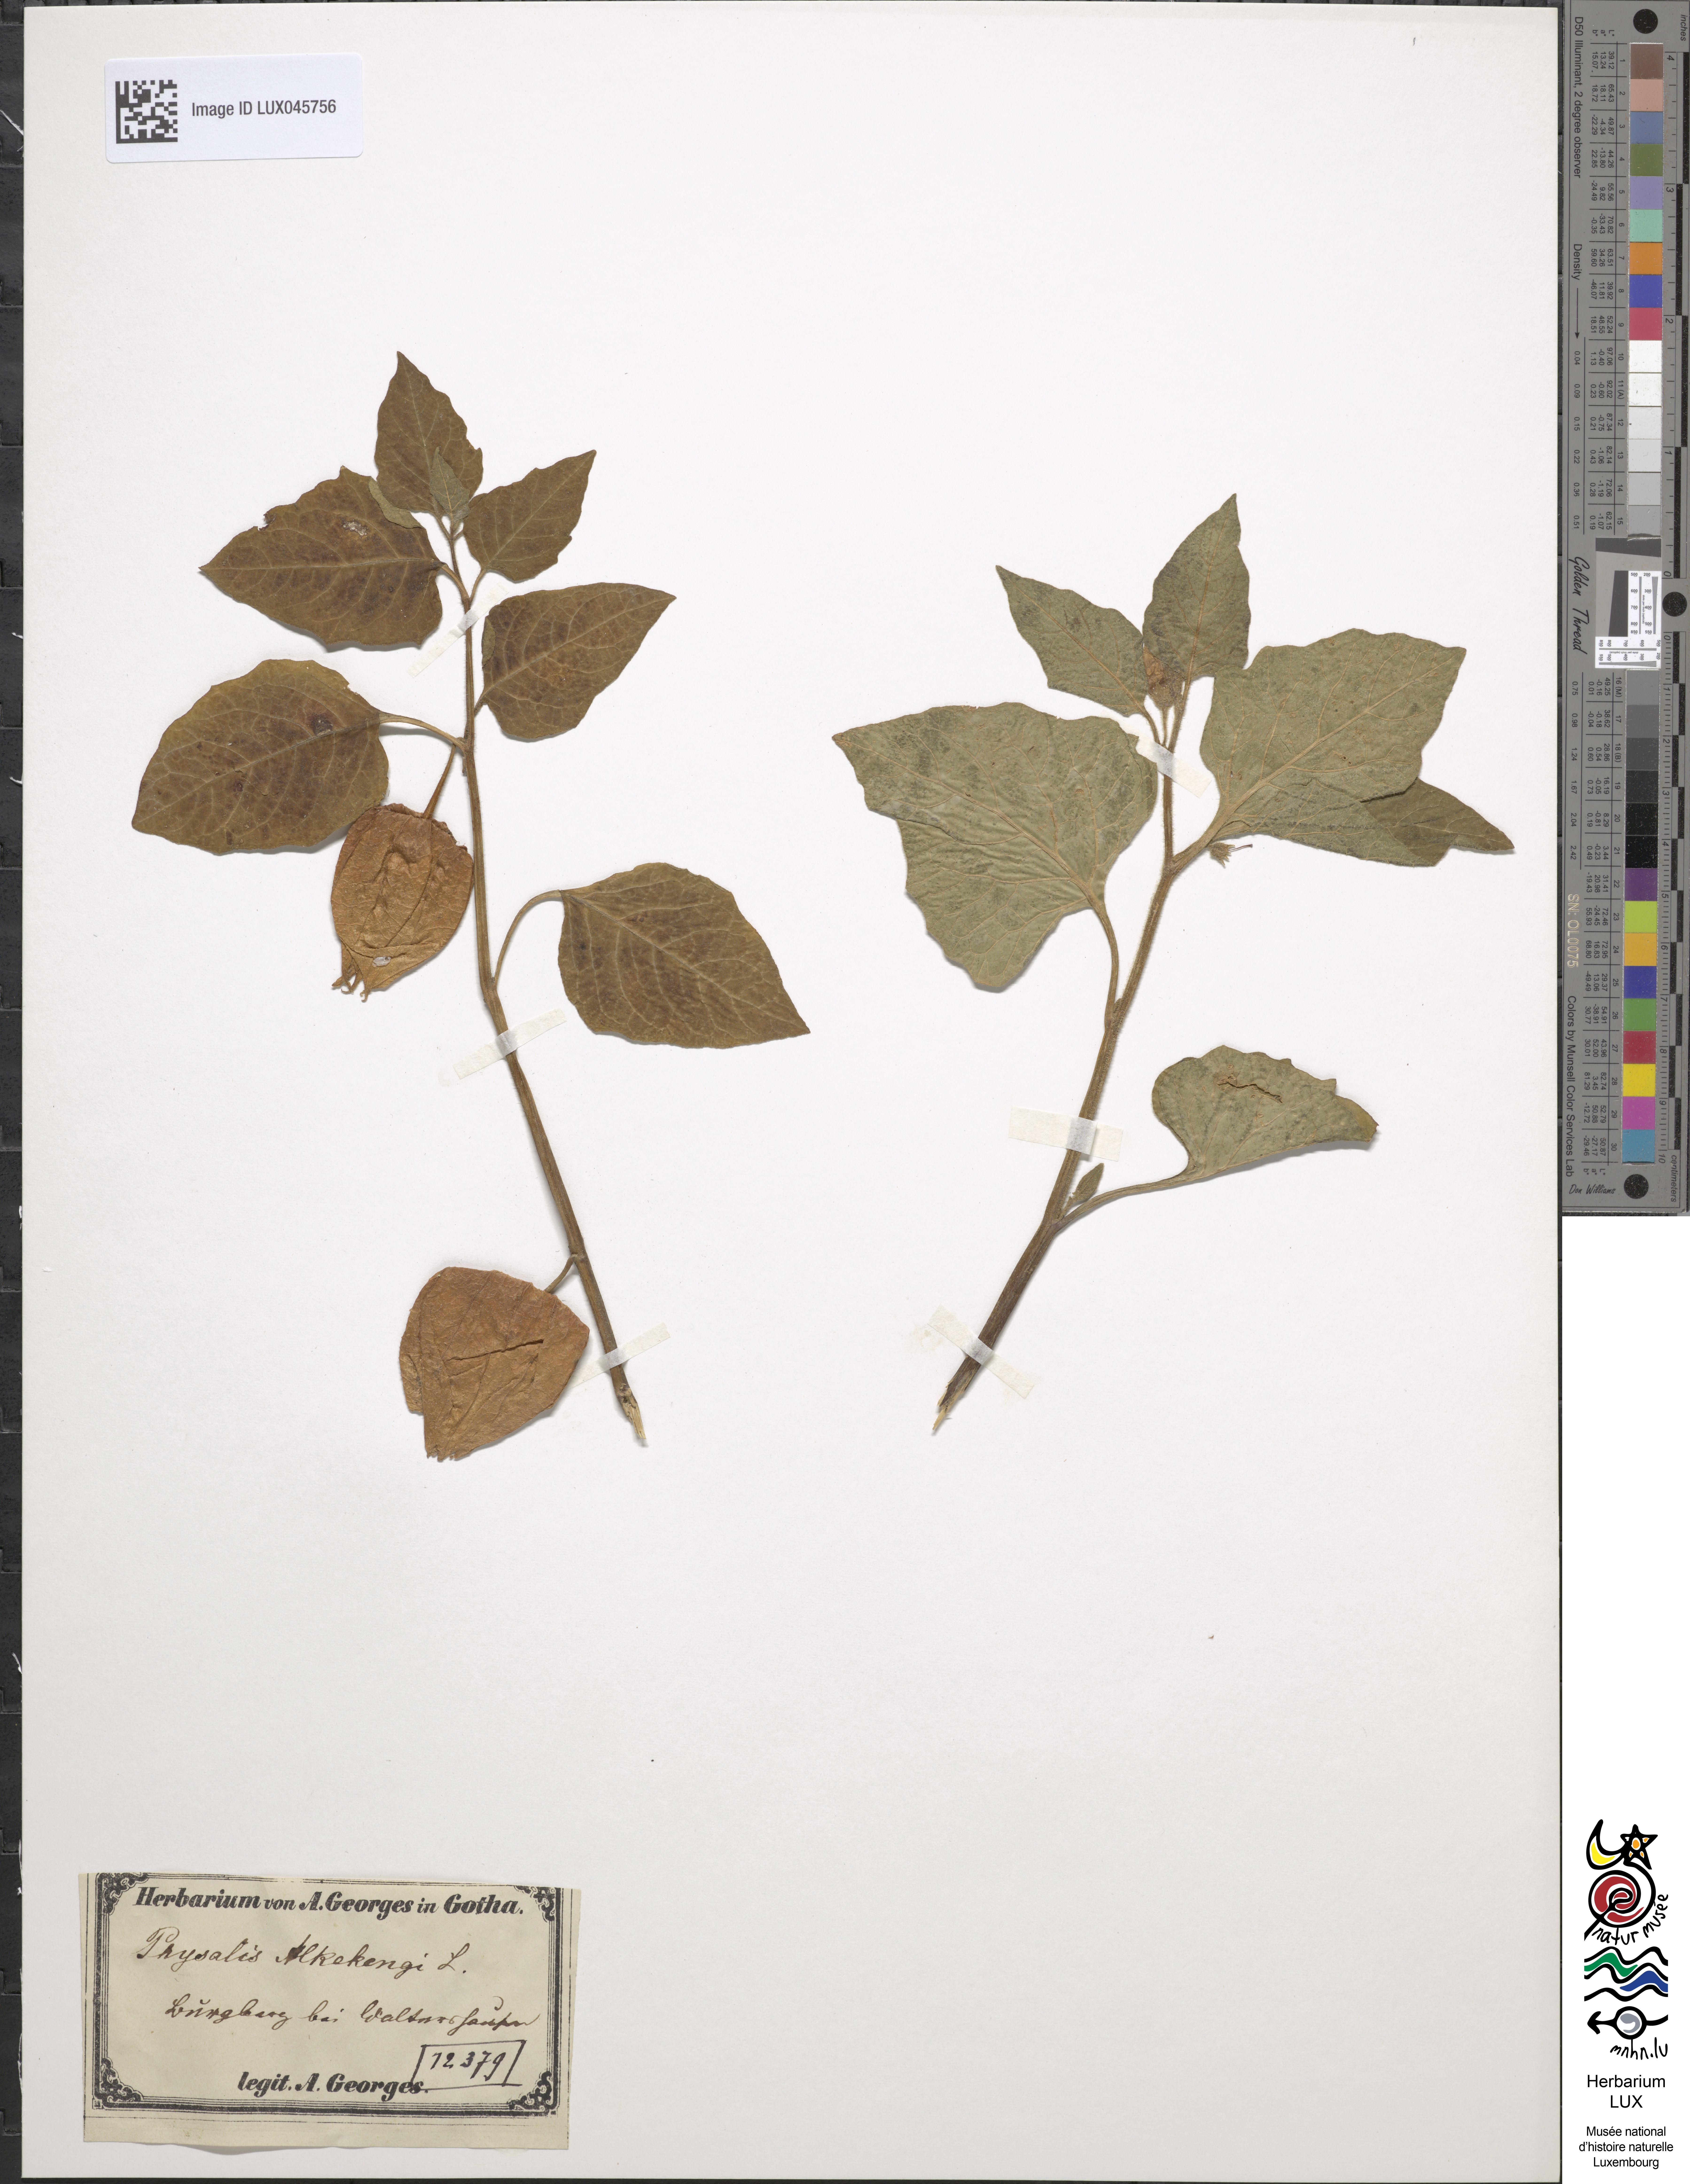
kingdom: Plantae
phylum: Tracheophyta
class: Magnoliopsida
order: Solanales
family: Solanaceae
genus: Alkekengi
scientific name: Alkekengi officinarum
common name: Japanese-lantern
